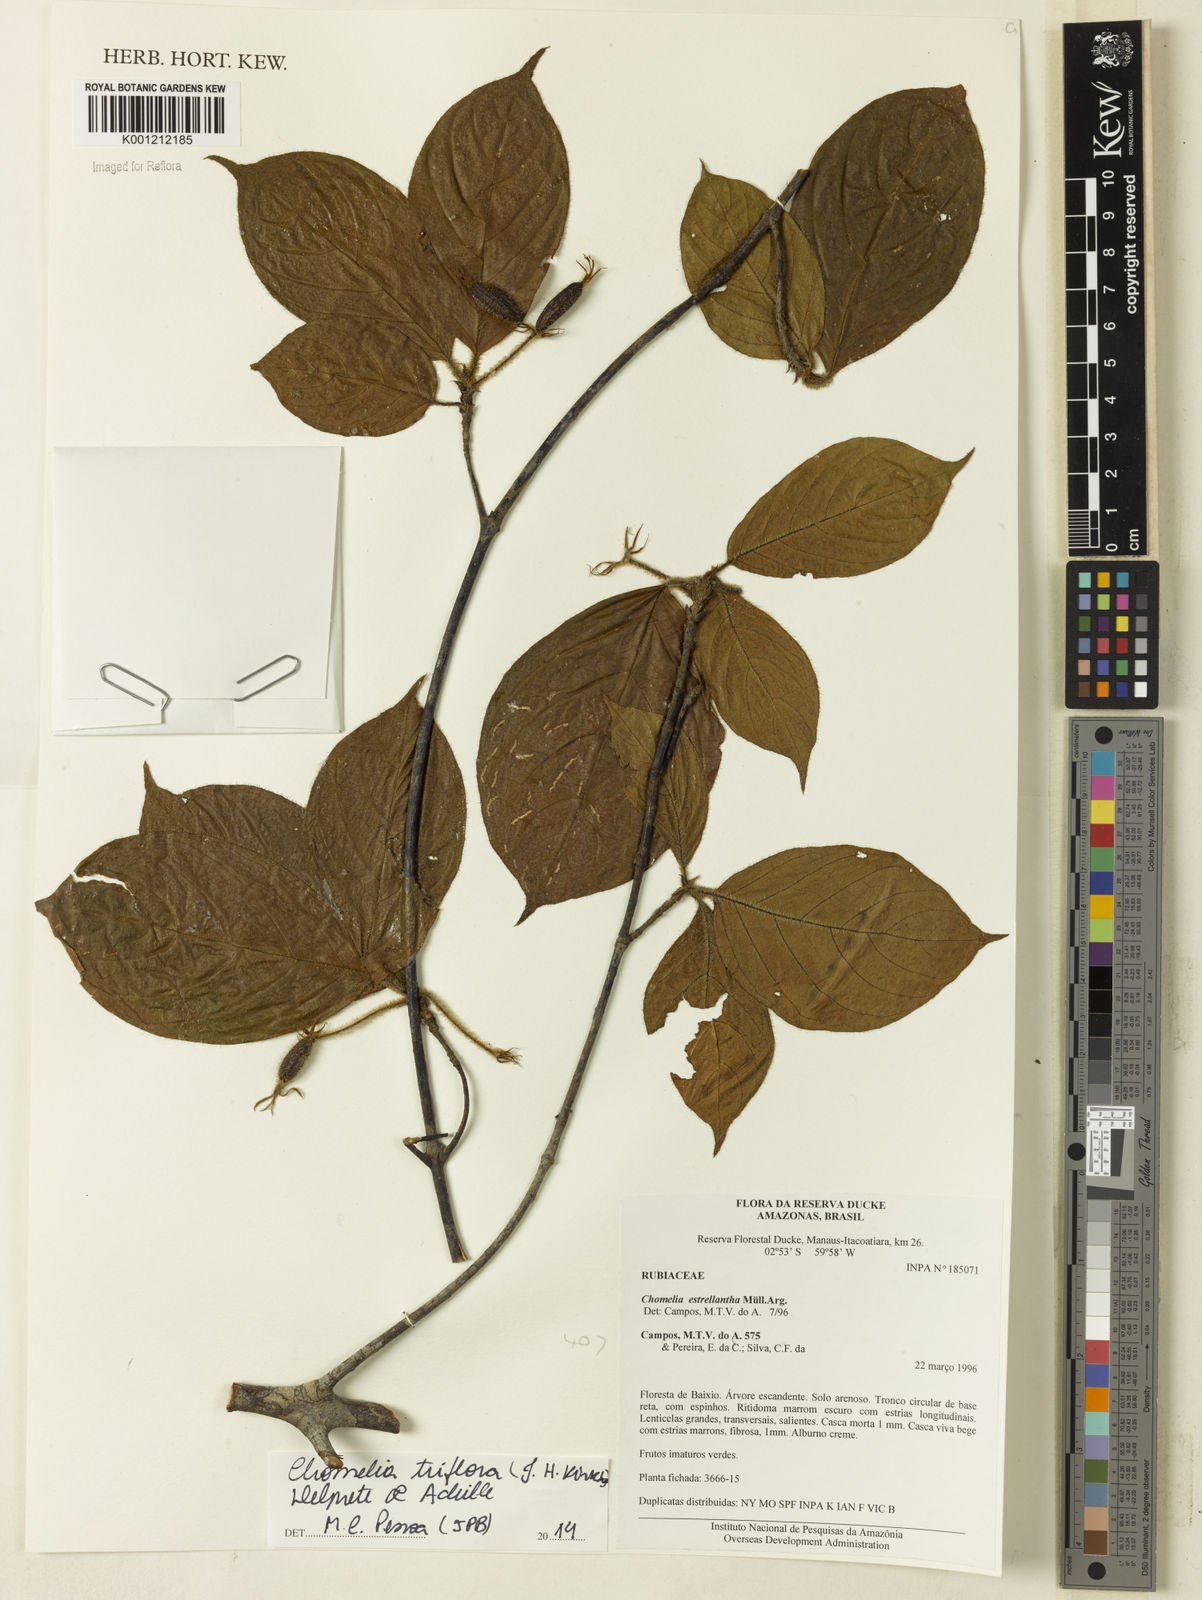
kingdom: Plantae
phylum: Tracheophyta
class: Magnoliopsida
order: Gentianales
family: Rubiaceae
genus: Chomelia
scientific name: Chomelia triflora
